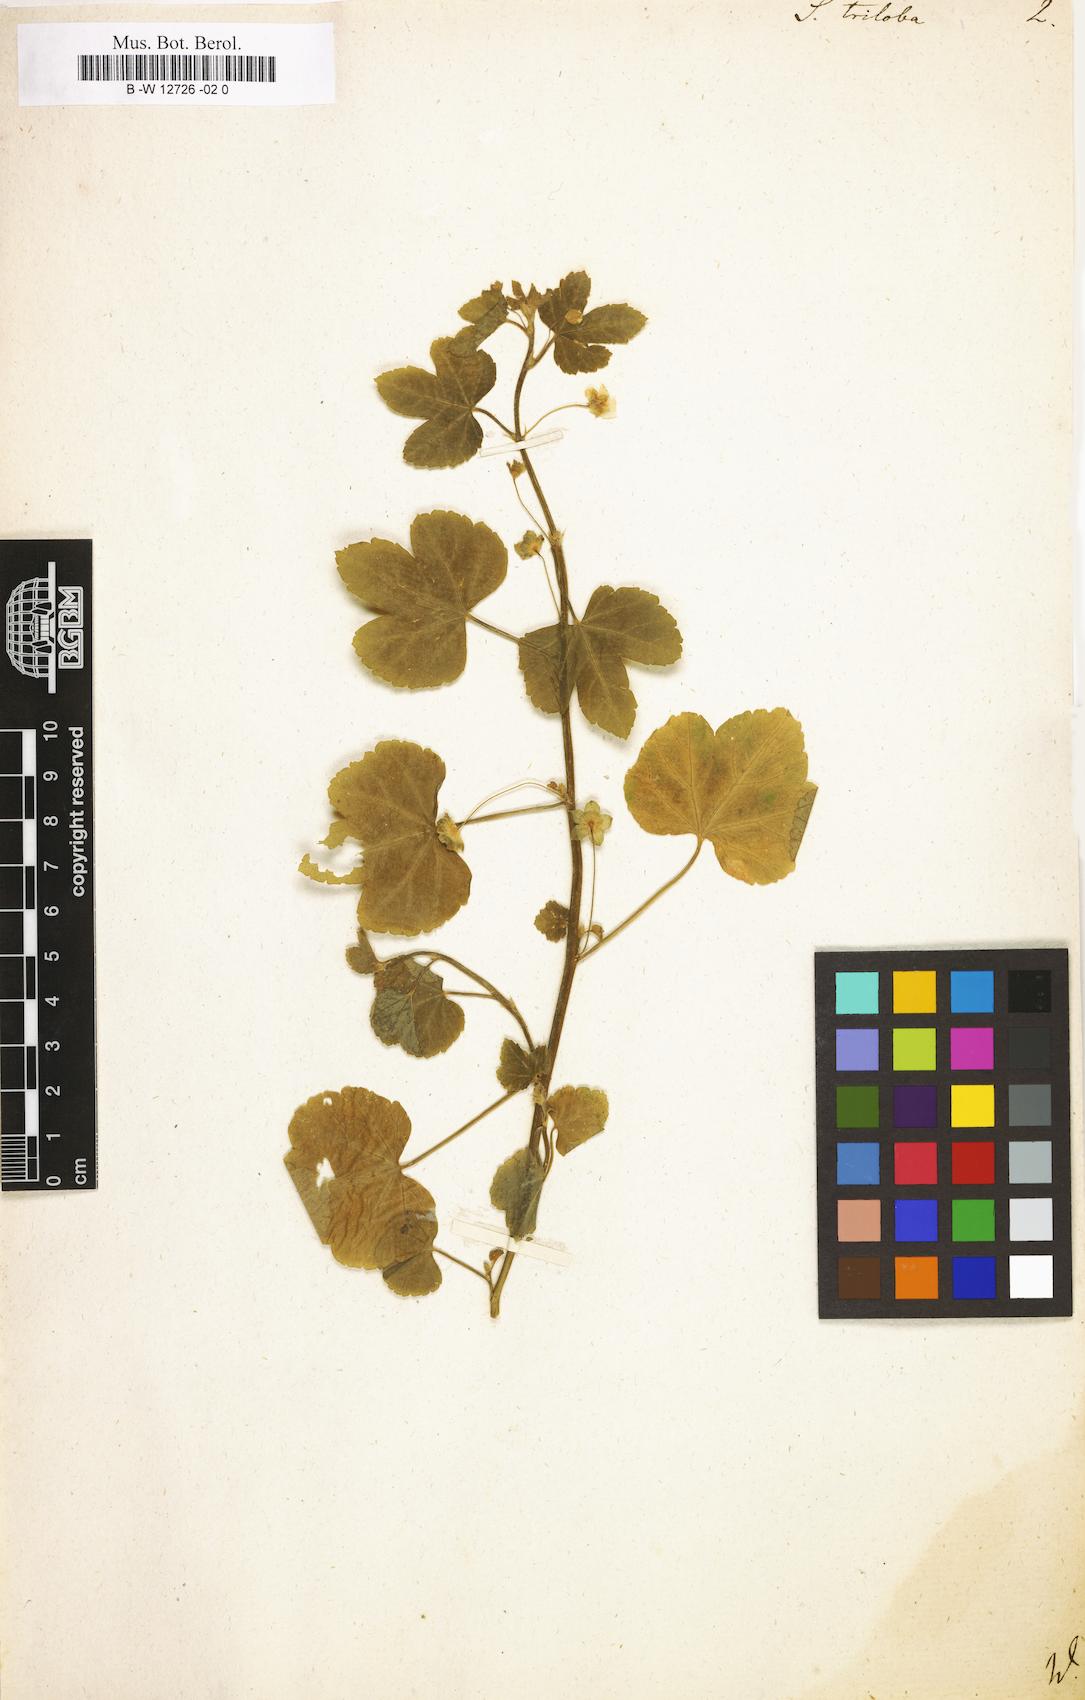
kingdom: Plantae
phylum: Tracheophyta
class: Magnoliopsida
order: Malvales
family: Malvaceae
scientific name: Malvaceae
